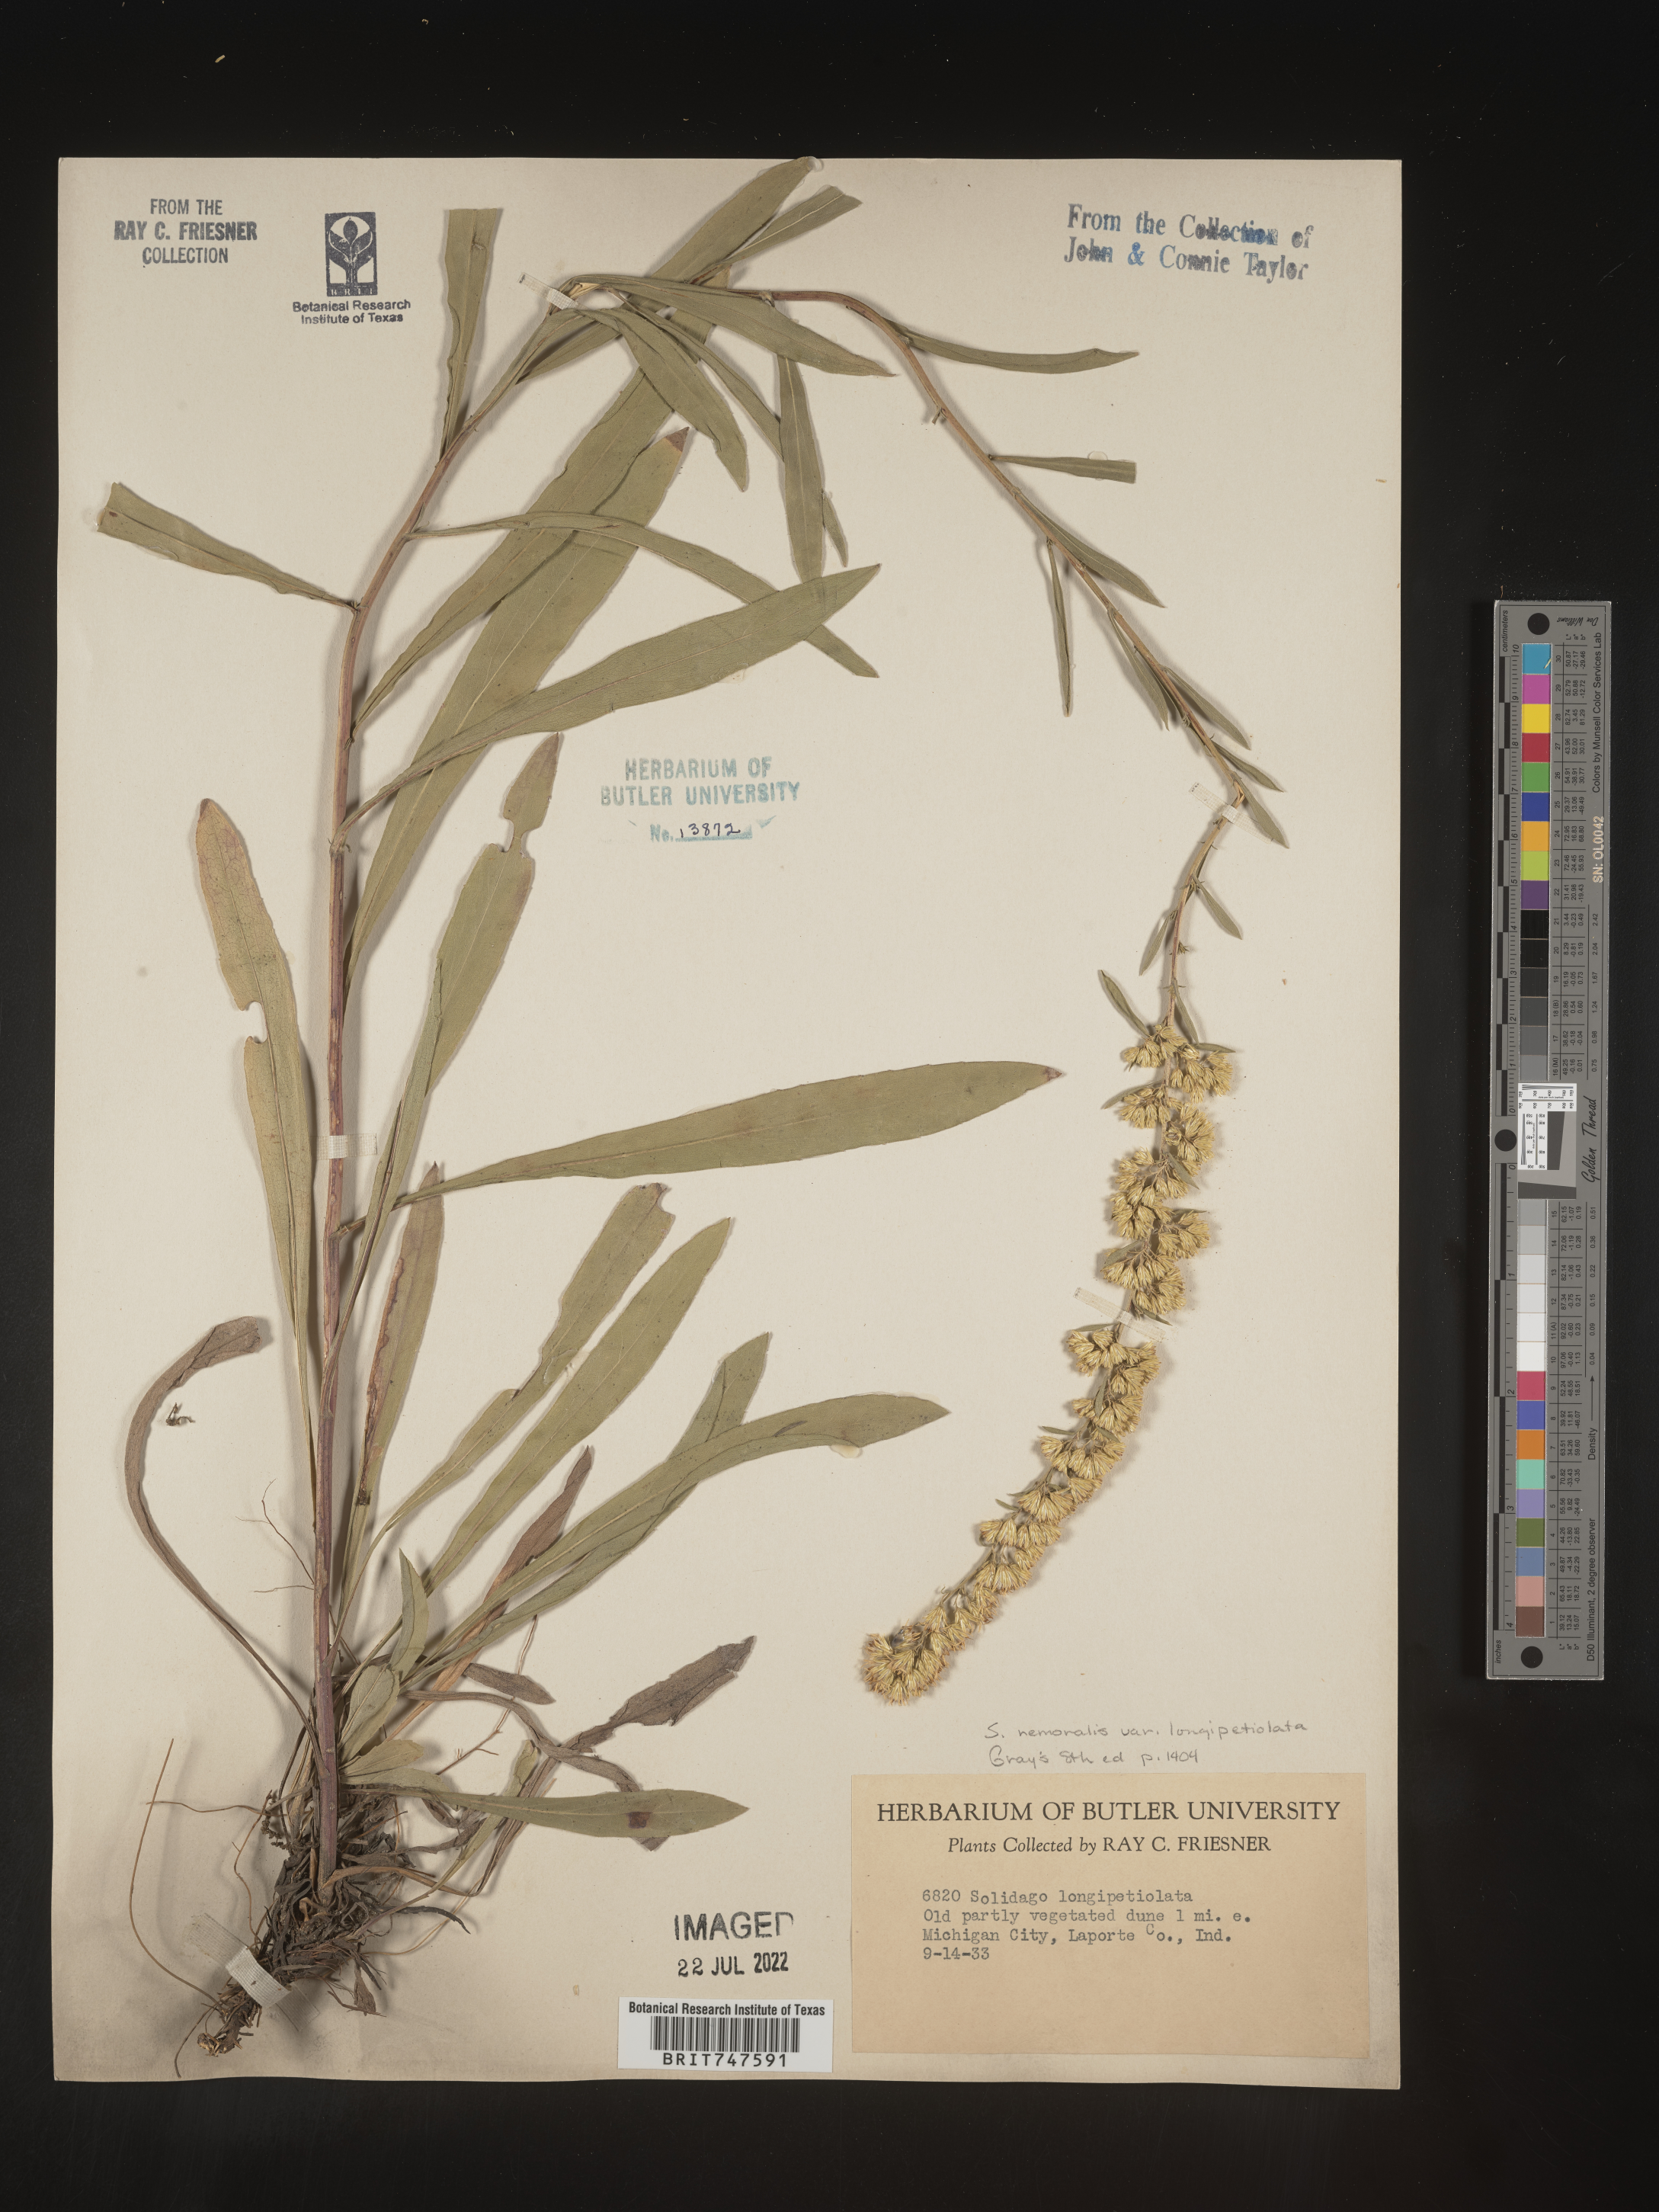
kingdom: Plantae
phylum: Tracheophyta
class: Magnoliopsida
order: Asterales
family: Asteraceae
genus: Solidago
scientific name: Solidago nemoralis
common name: Grey goldenrod
